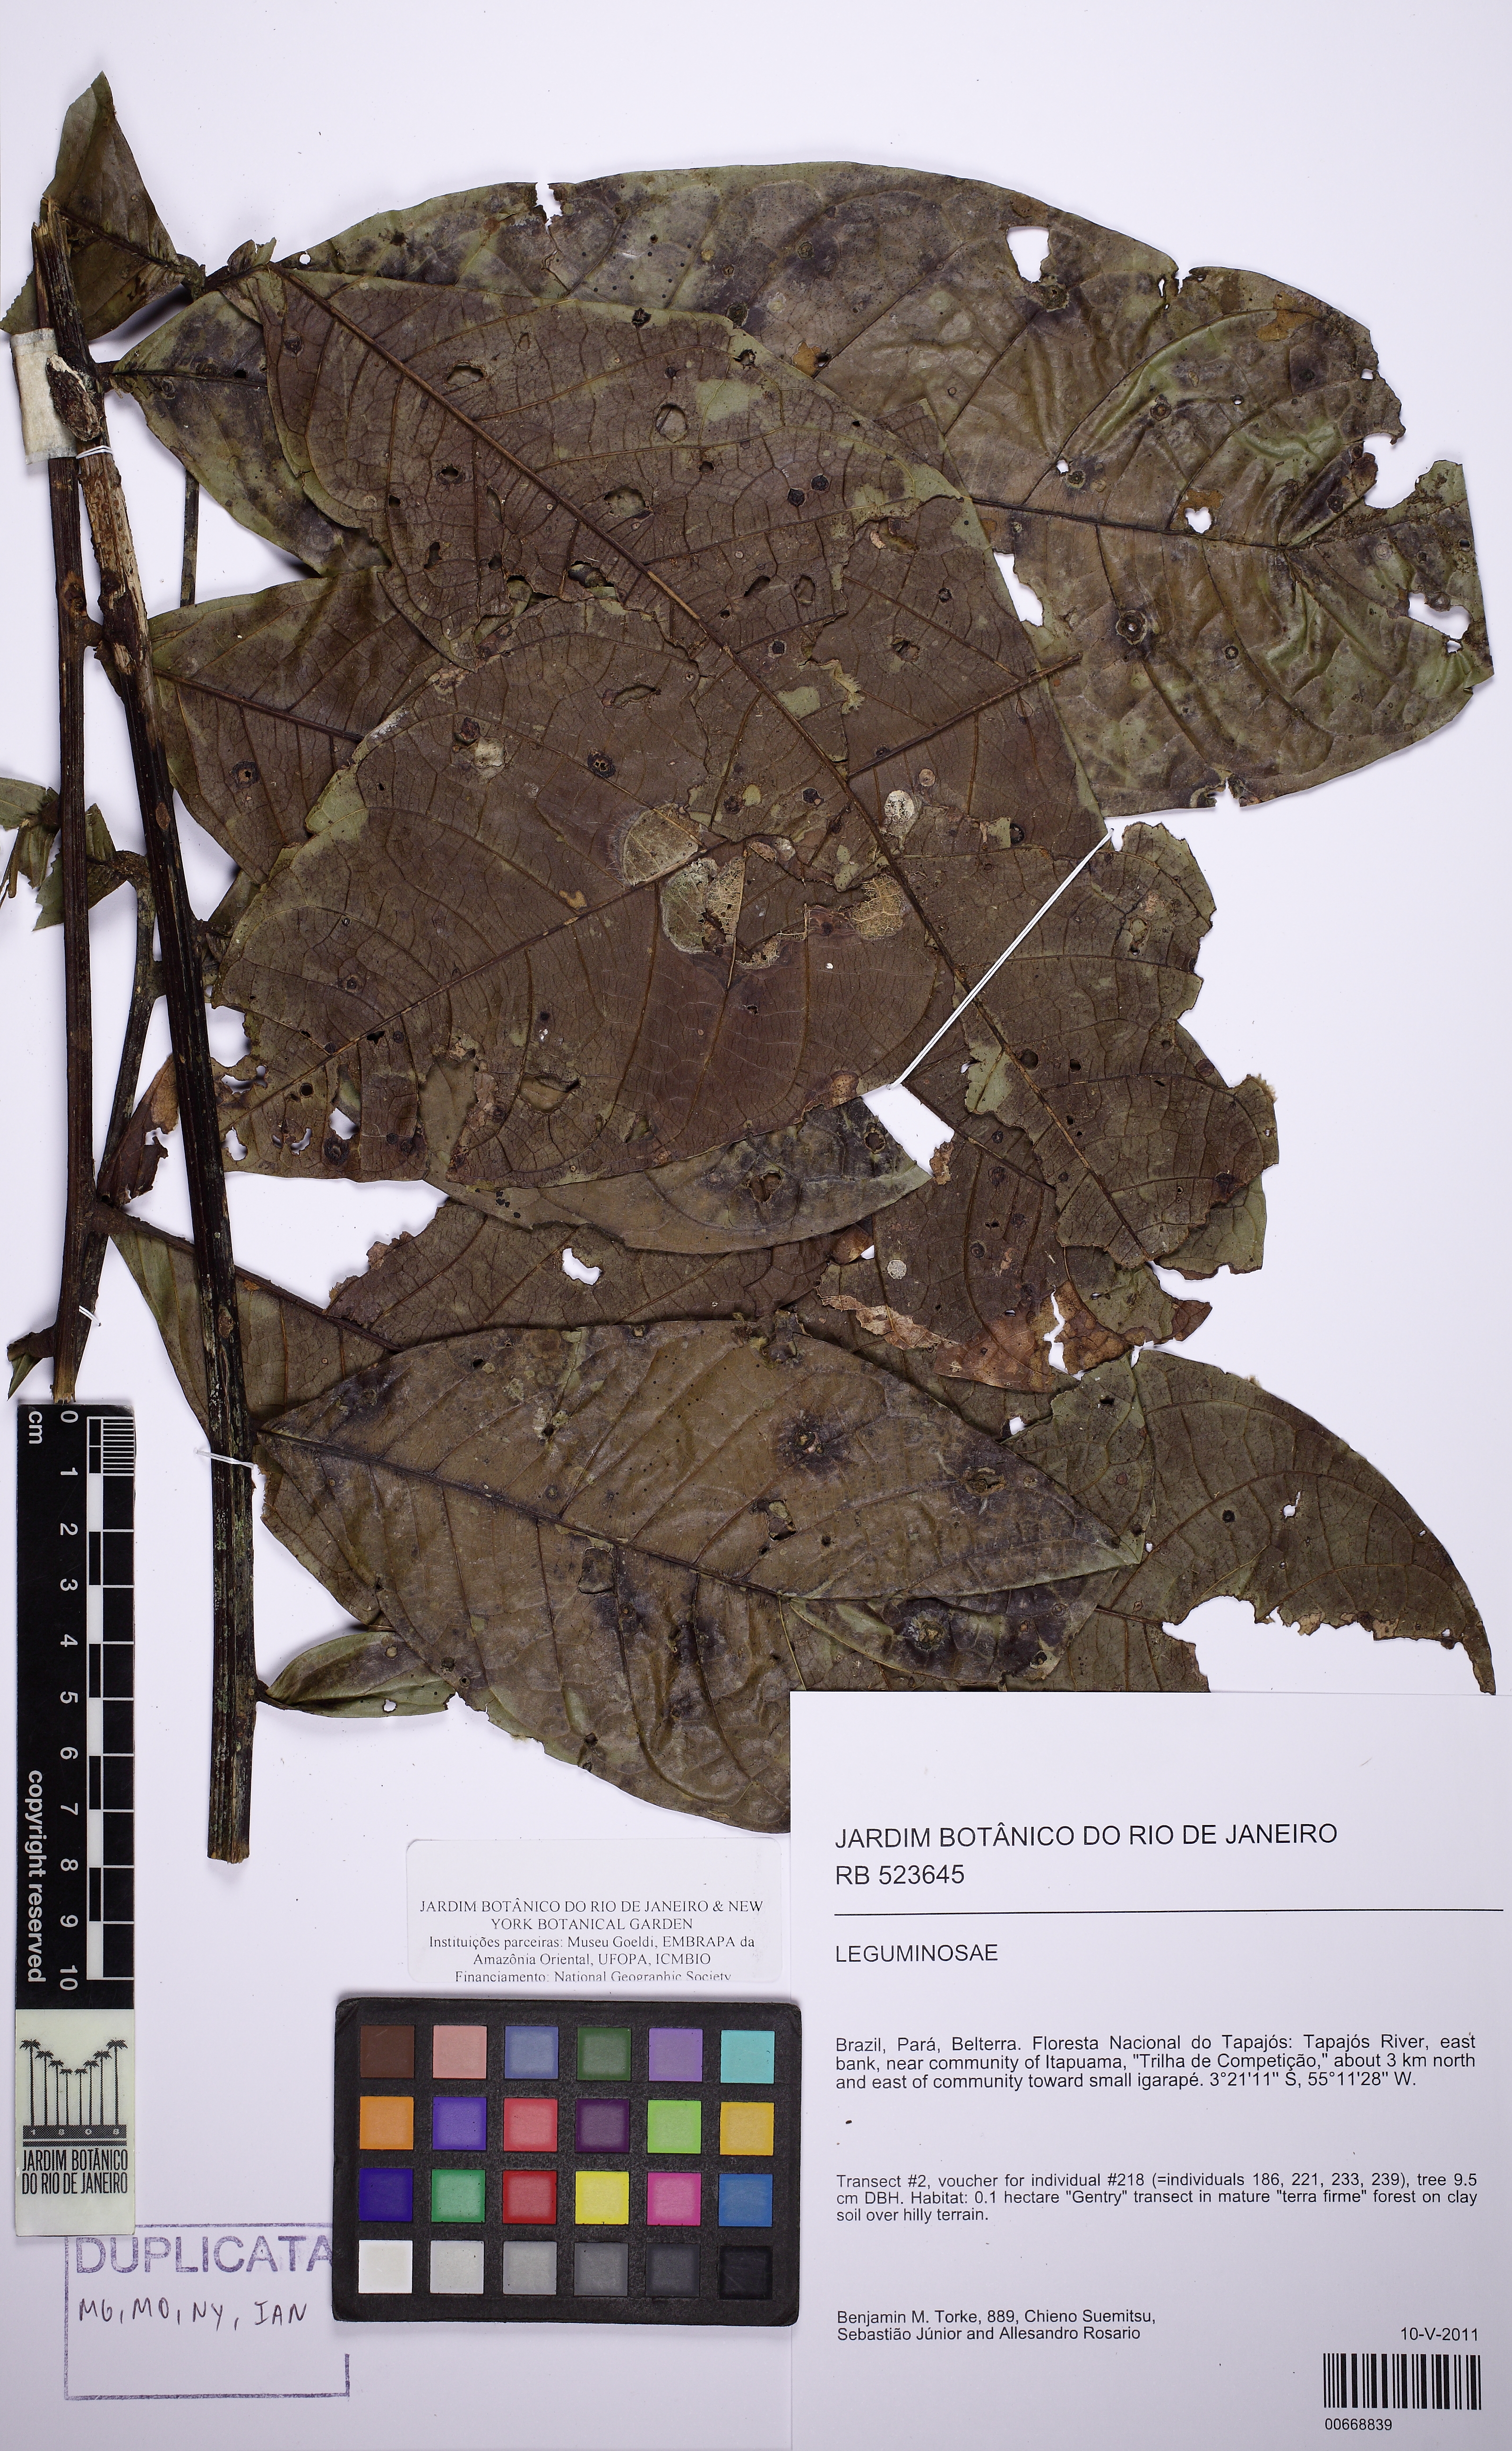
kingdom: Plantae
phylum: Tracheophyta
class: Magnoliopsida
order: Sapindales
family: Sapindaceae
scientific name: Sapindaceae
